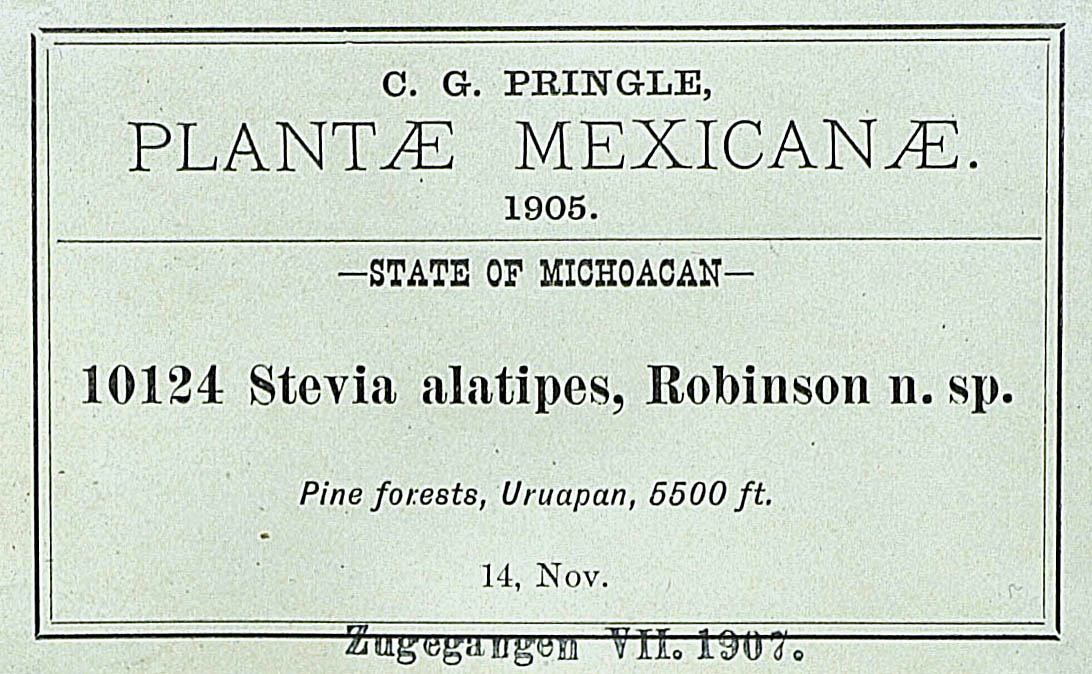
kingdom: Plantae
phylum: Tracheophyta
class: Magnoliopsida
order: Asterales
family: Asteraceae
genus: Stevia
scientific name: Stevia alatipes
